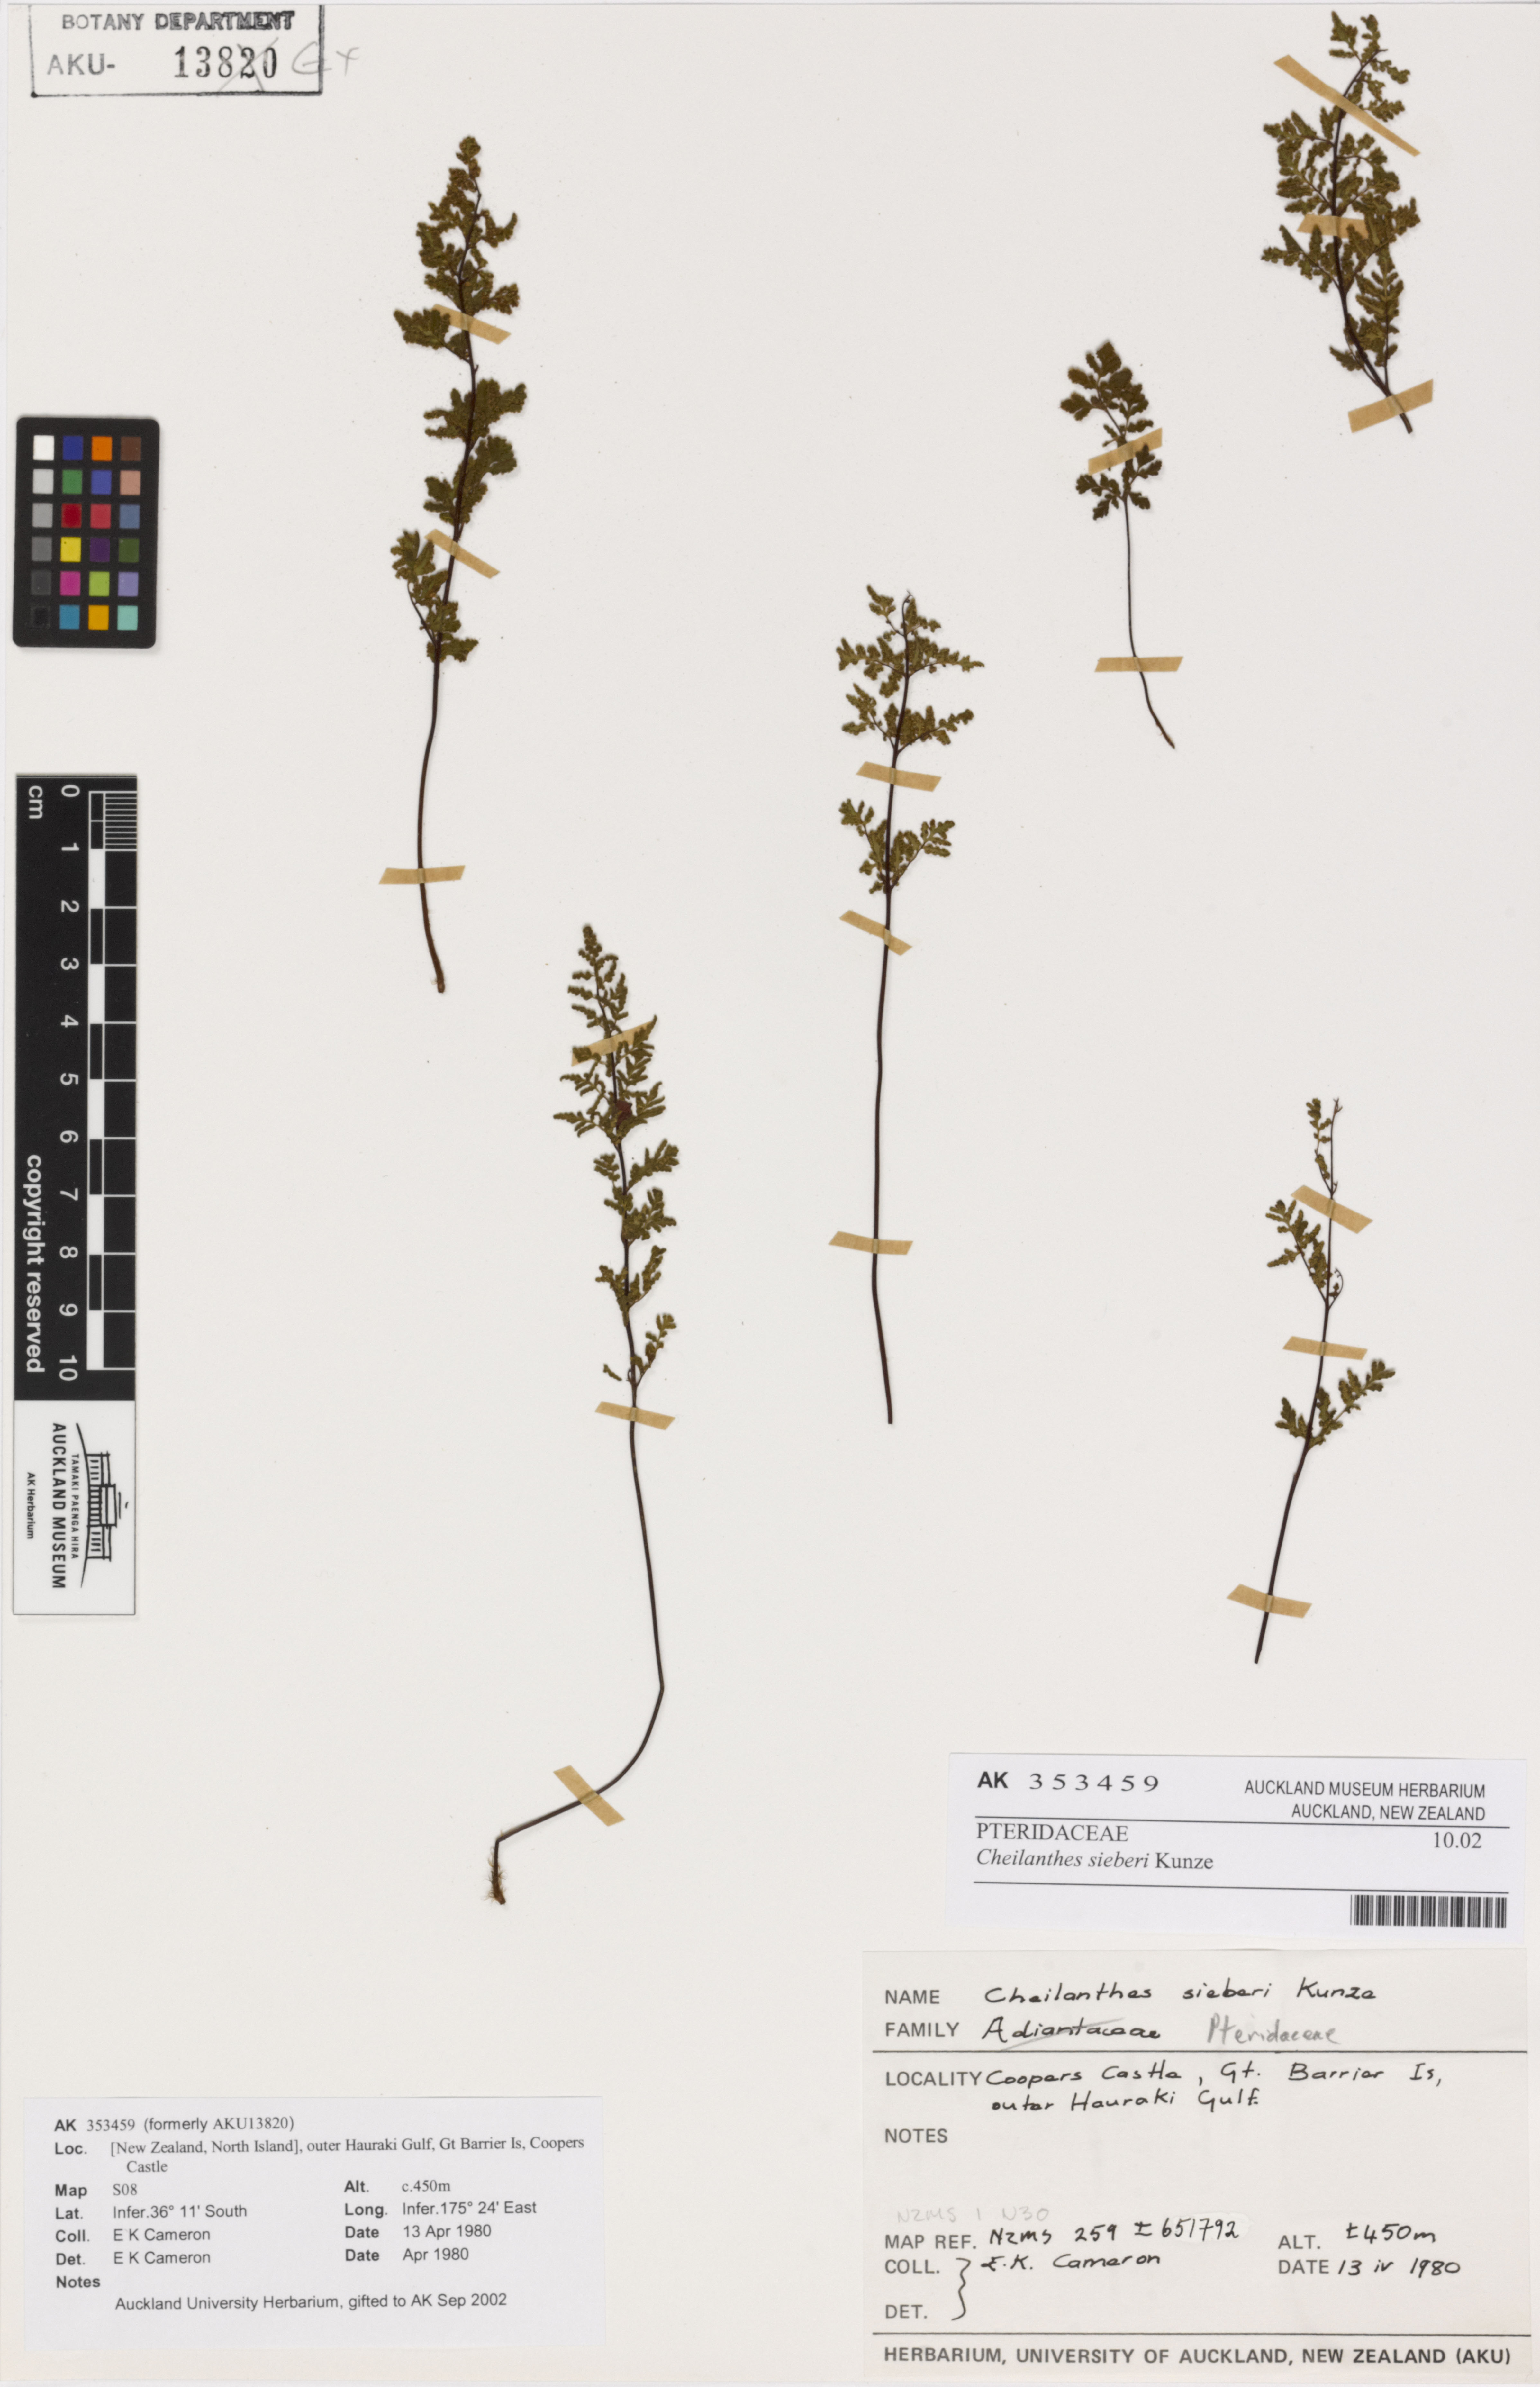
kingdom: Plantae
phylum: Tracheophyta
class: Polypodiopsida
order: Polypodiales
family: Pteridaceae
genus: Cheilanthes
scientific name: Cheilanthes sieberi
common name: Mulga fern
